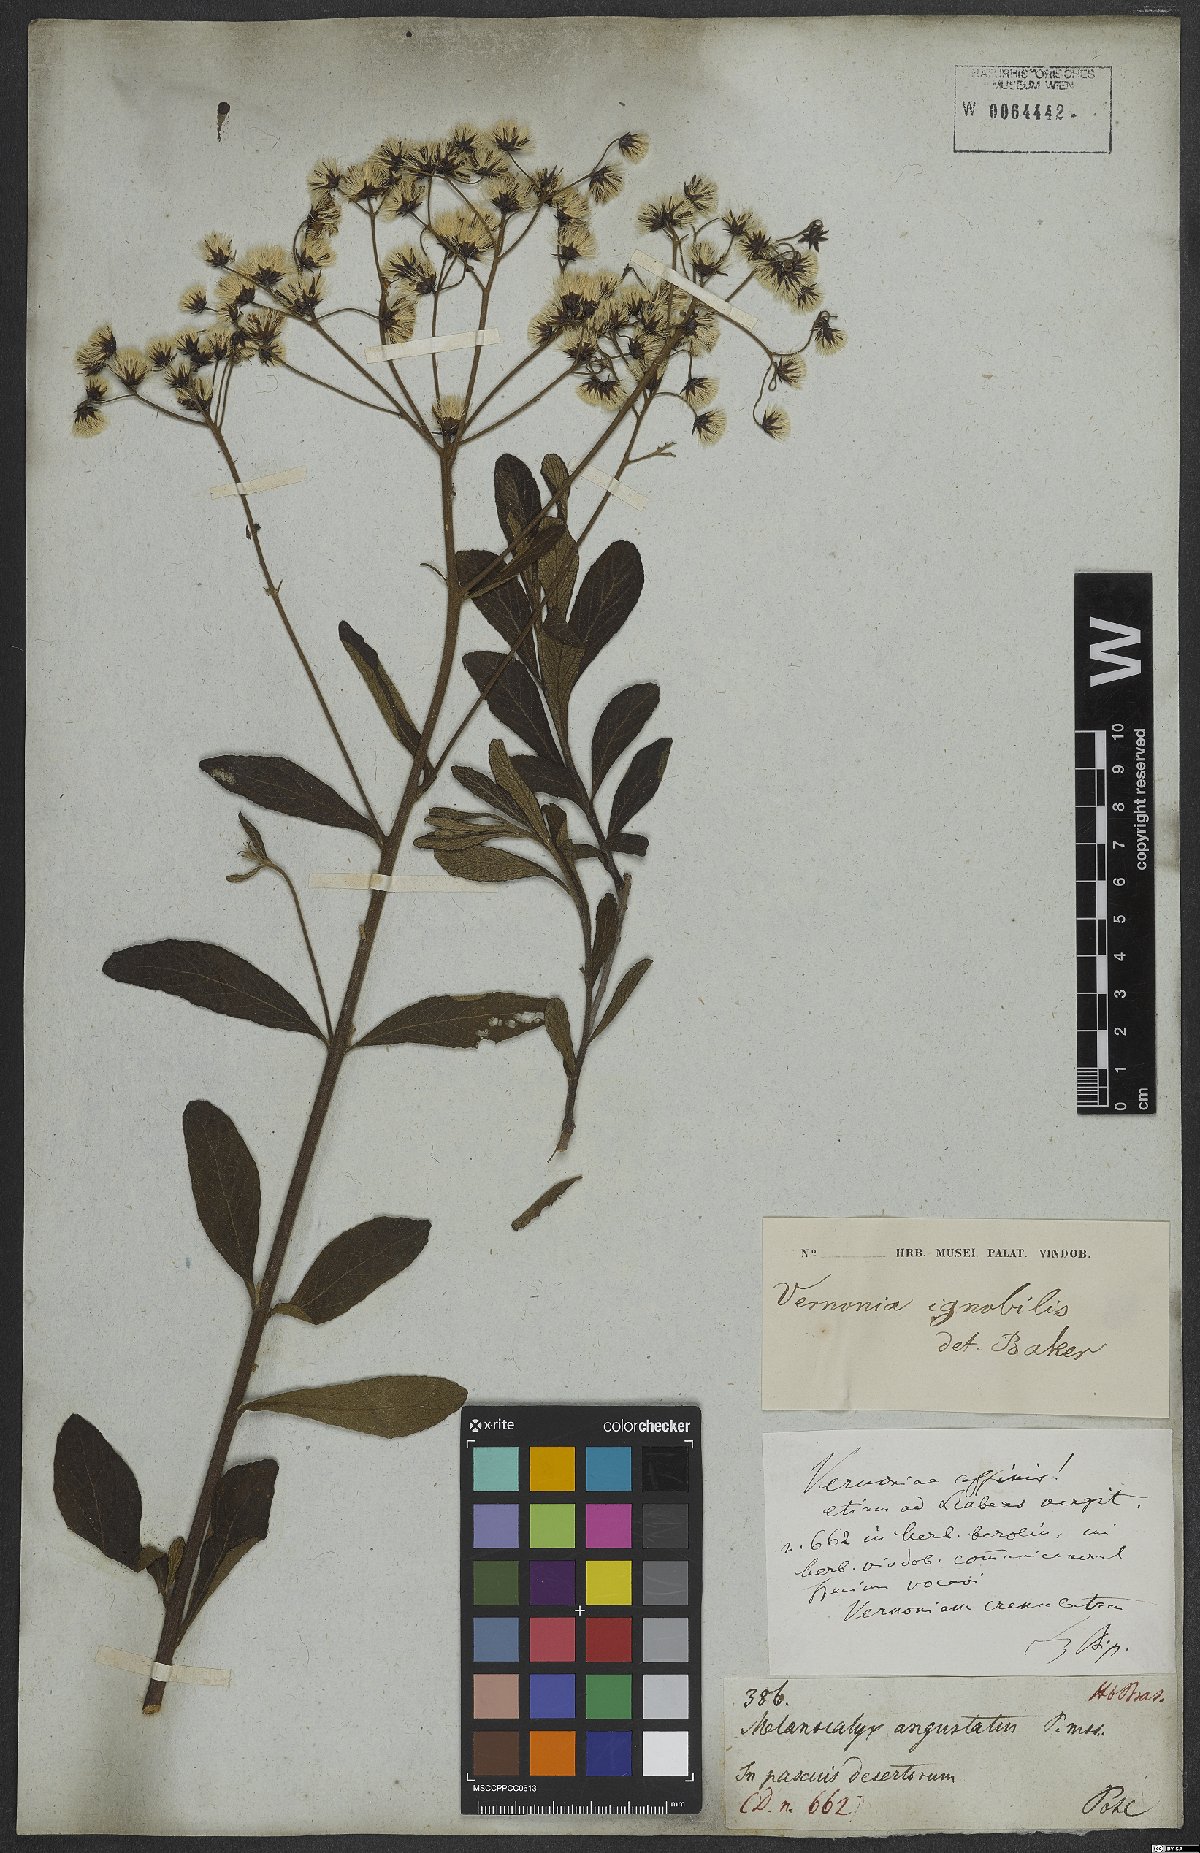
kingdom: Plantae
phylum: Tracheophyta
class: Magnoliopsida
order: Asterales
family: Asteraceae
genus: Vernonanthura
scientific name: Vernonanthura ignobilis
